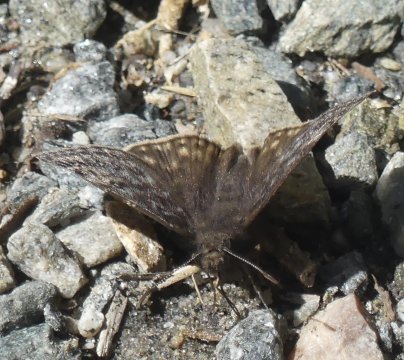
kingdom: Animalia
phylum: Arthropoda
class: Insecta
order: Lepidoptera
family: Hesperiidae
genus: Gesta
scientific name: Gesta
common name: Juvenal's Duskywing
